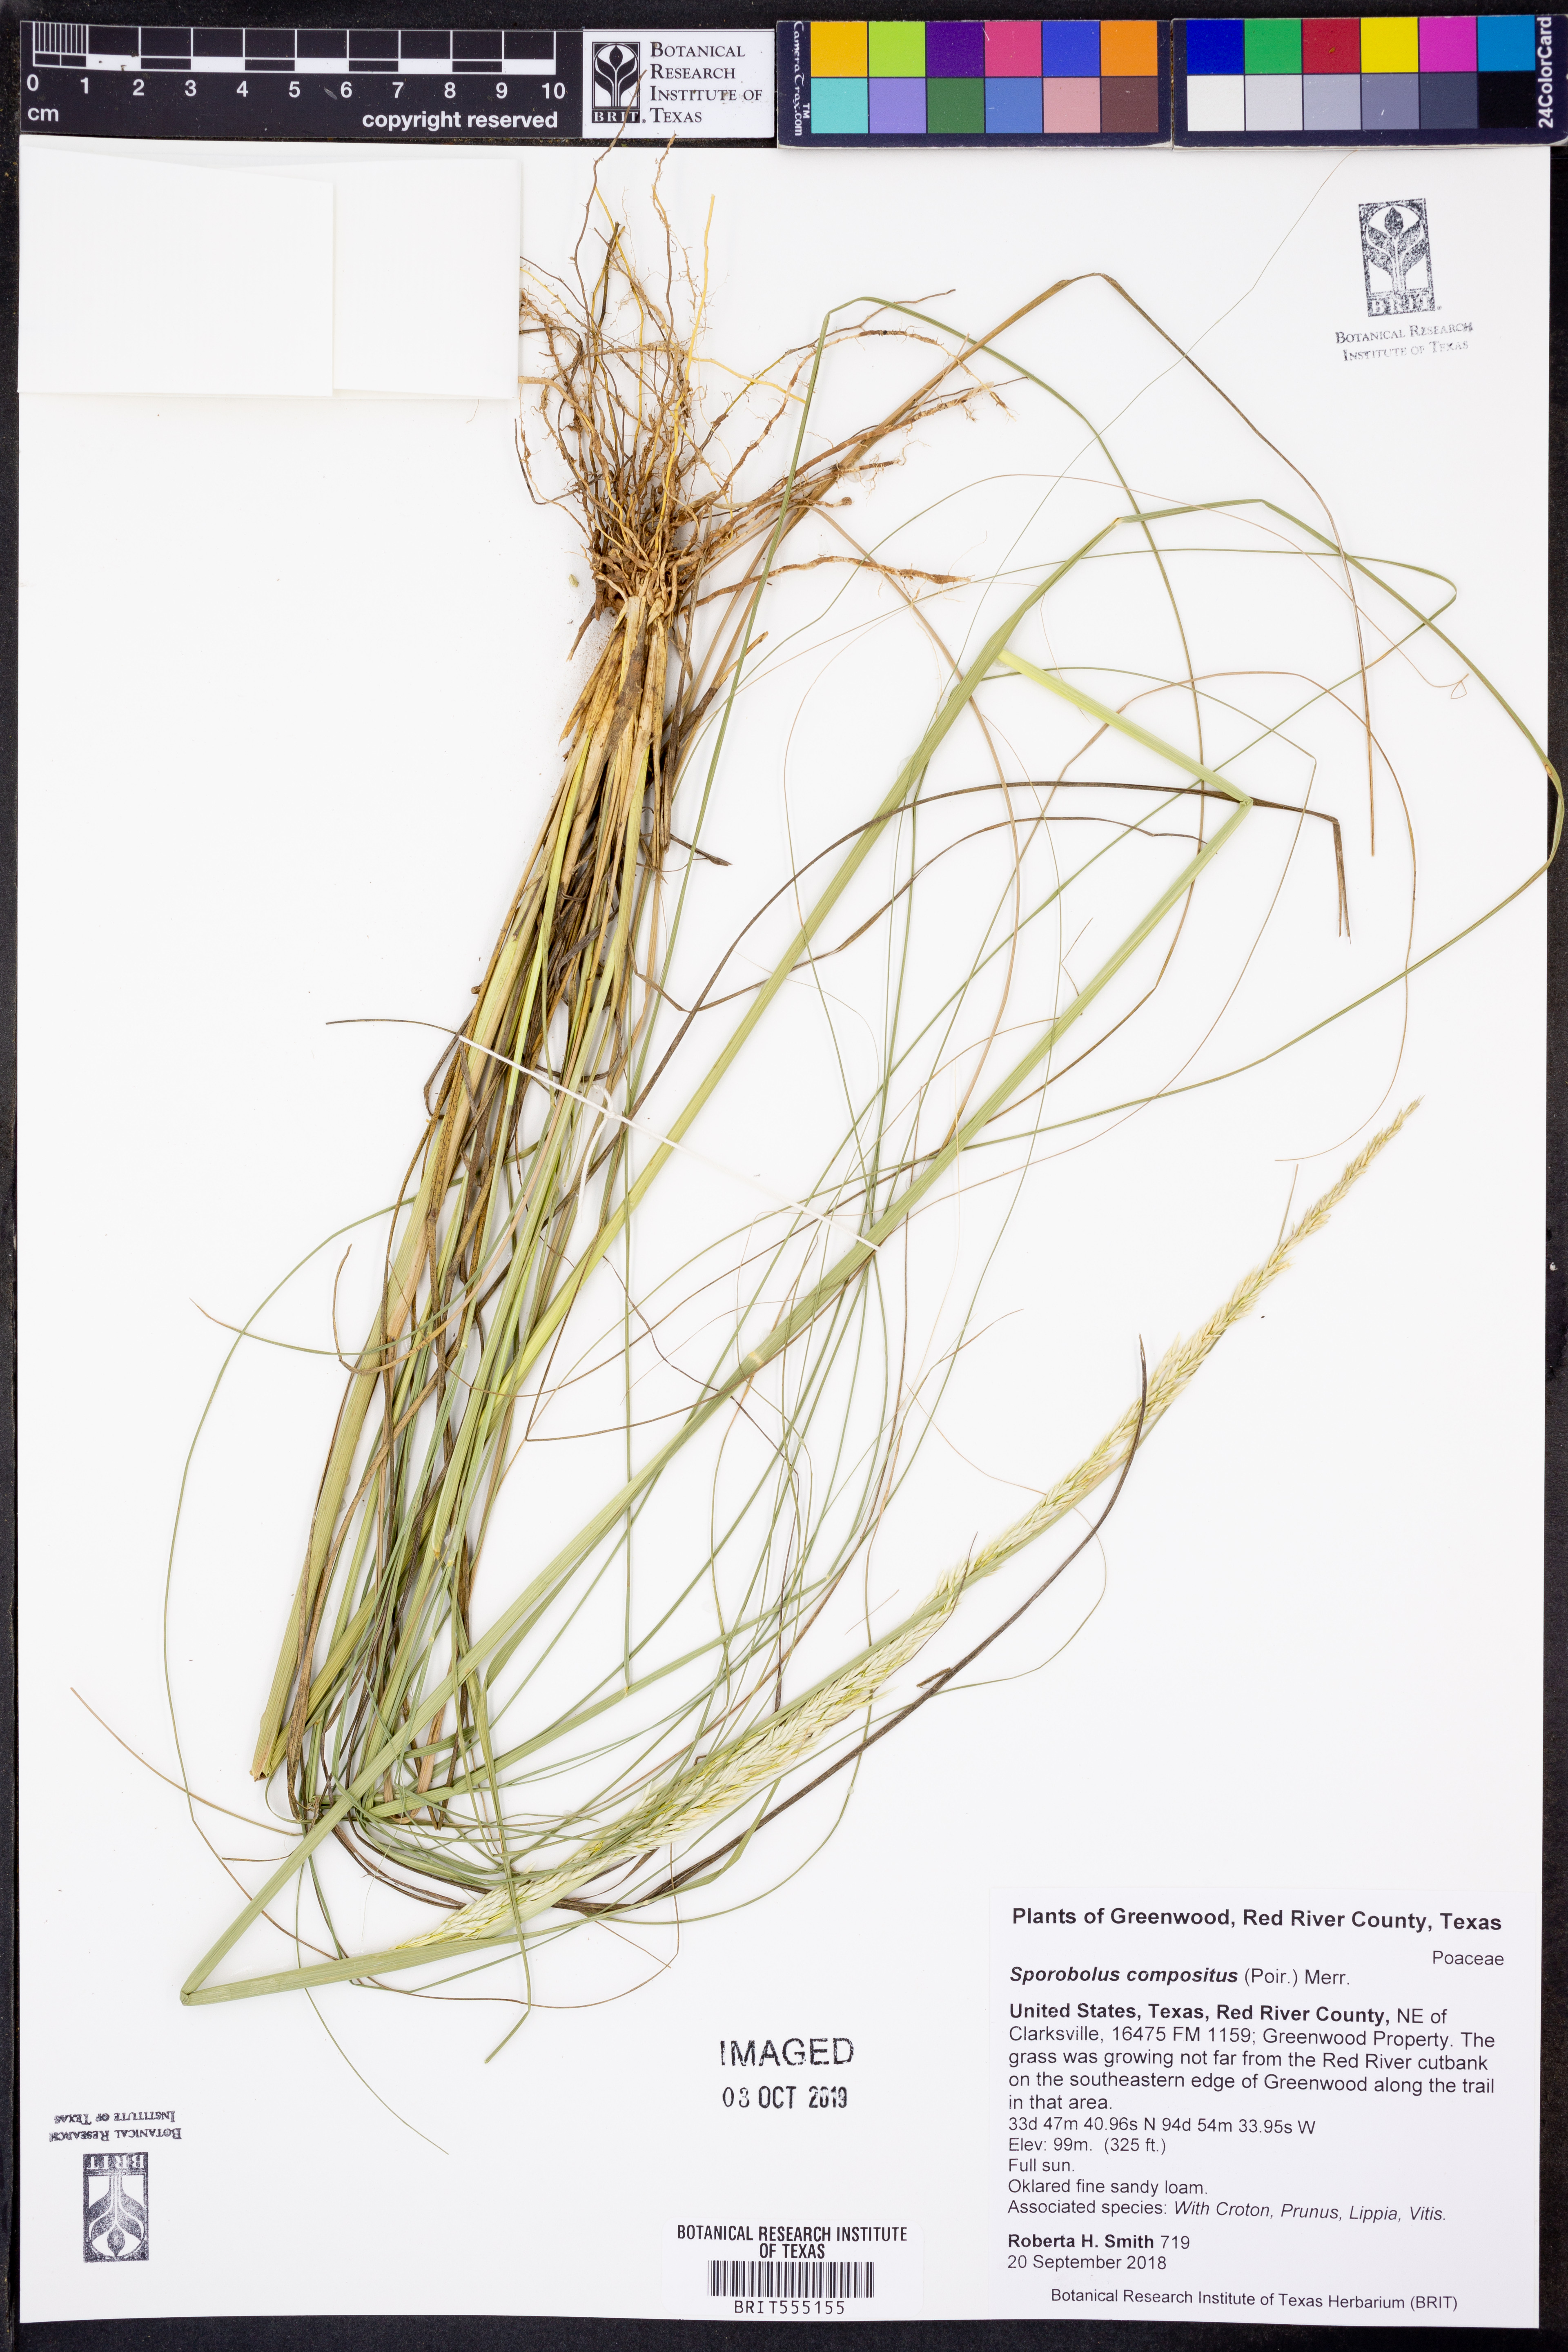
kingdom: Plantae
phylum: Tracheophyta
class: Liliopsida
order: Poales
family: Poaceae
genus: Sporobolus
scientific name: Sporobolus compositus
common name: Rough dropseed
